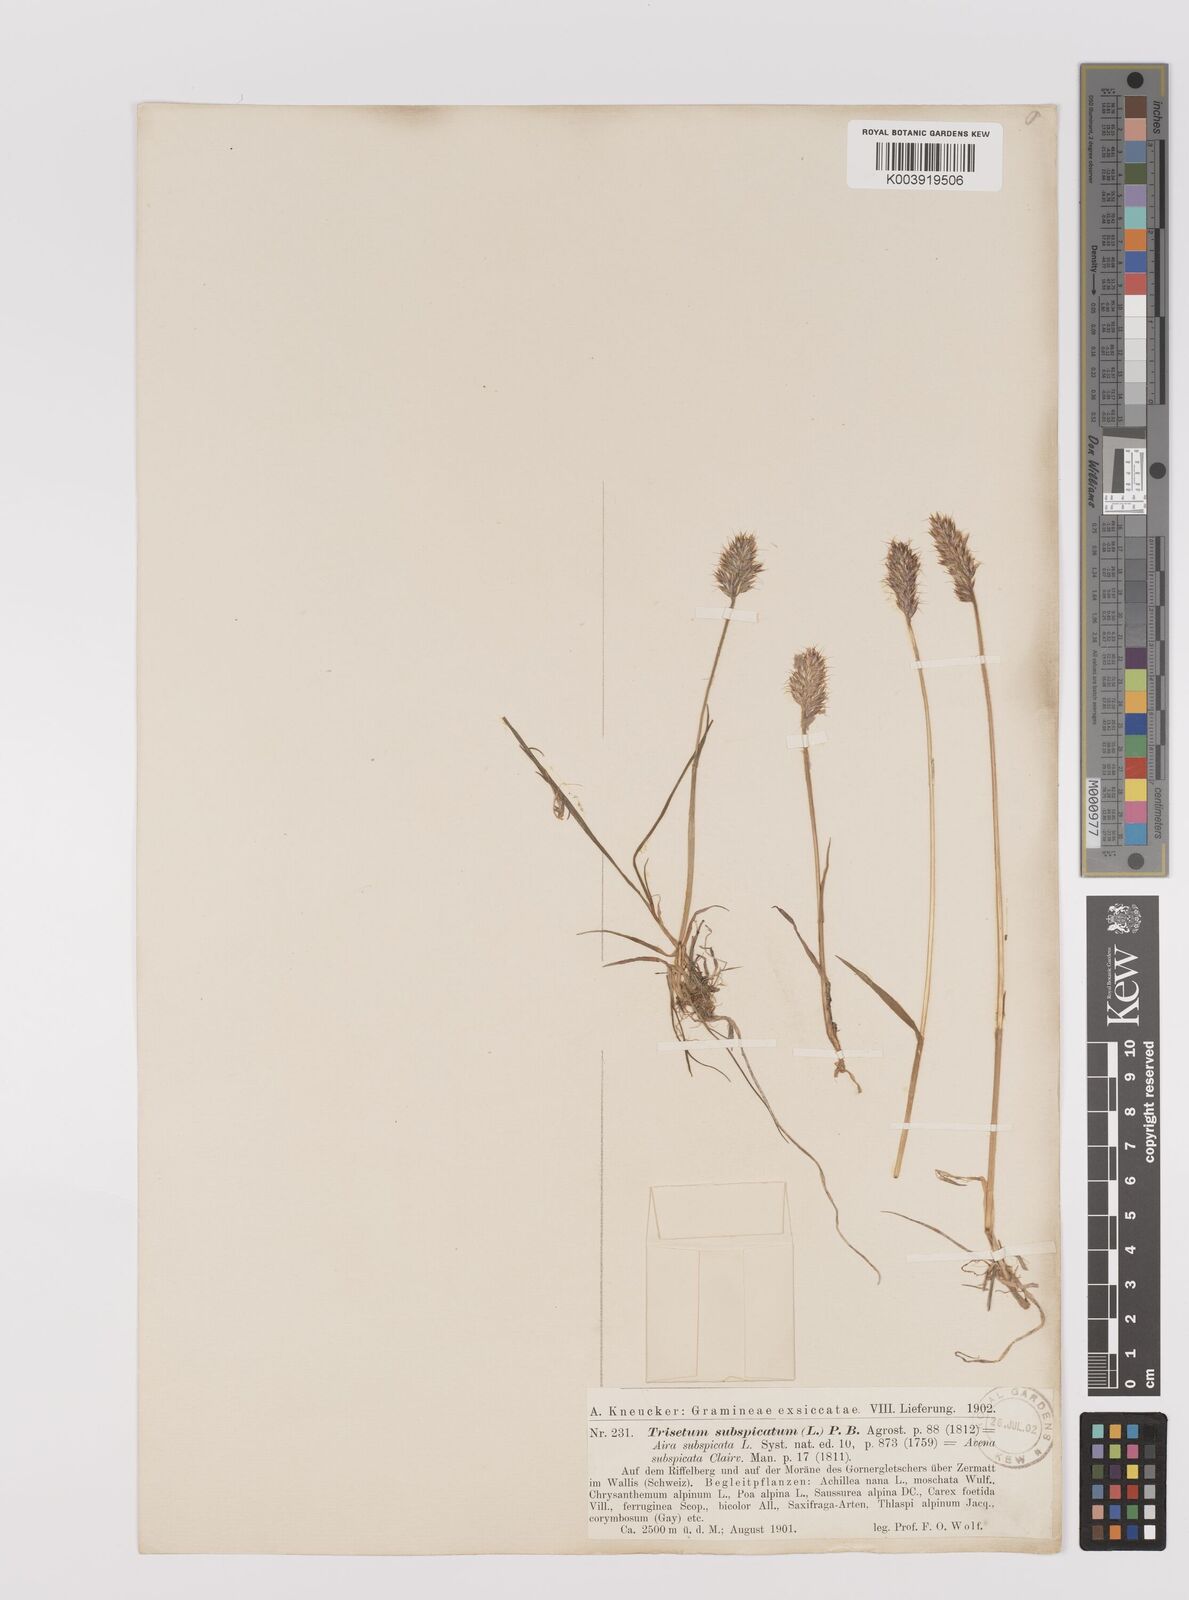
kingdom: Plantae
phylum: Tracheophyta
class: Liliopsida
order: Poales
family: Poaceae
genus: Koeleria
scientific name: Koeleria spicata
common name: Mountain trisetum
